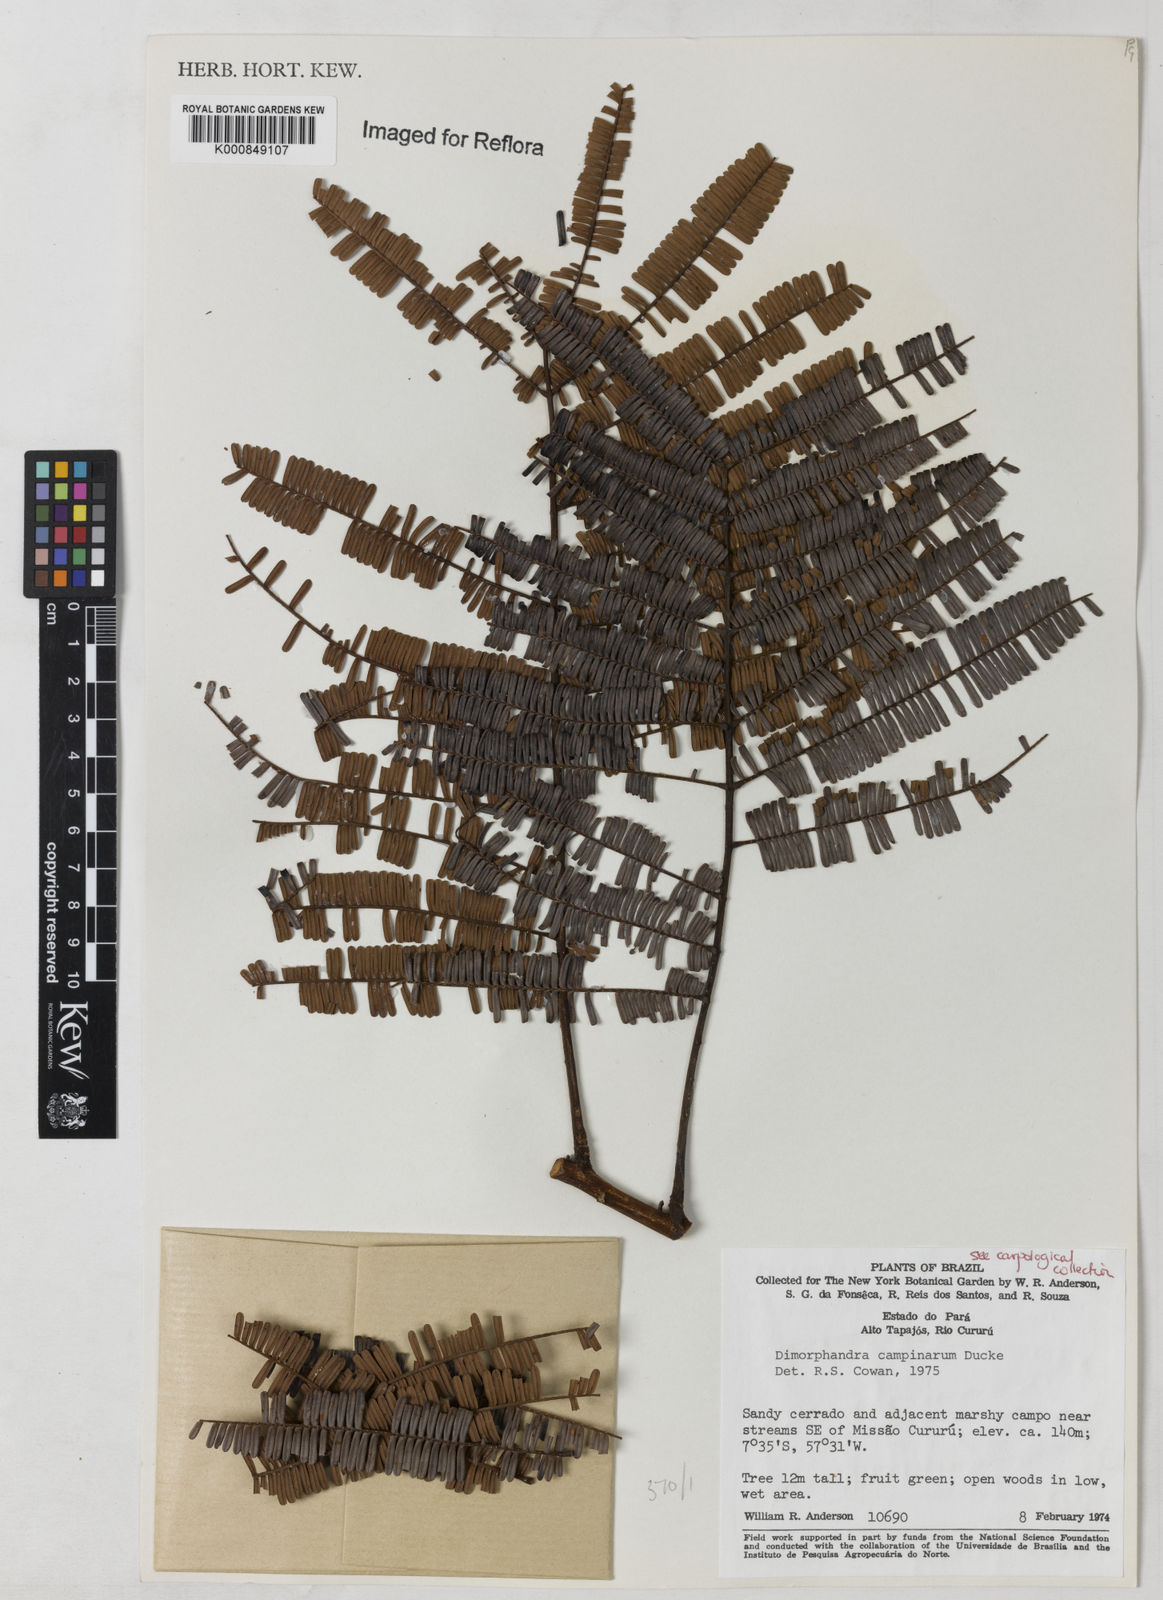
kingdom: Plantae
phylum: Tracheophyta
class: Magnoliopsida
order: Fabales
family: Fabaceae
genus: Dimorphandra
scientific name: Dimorphandra campinarum
